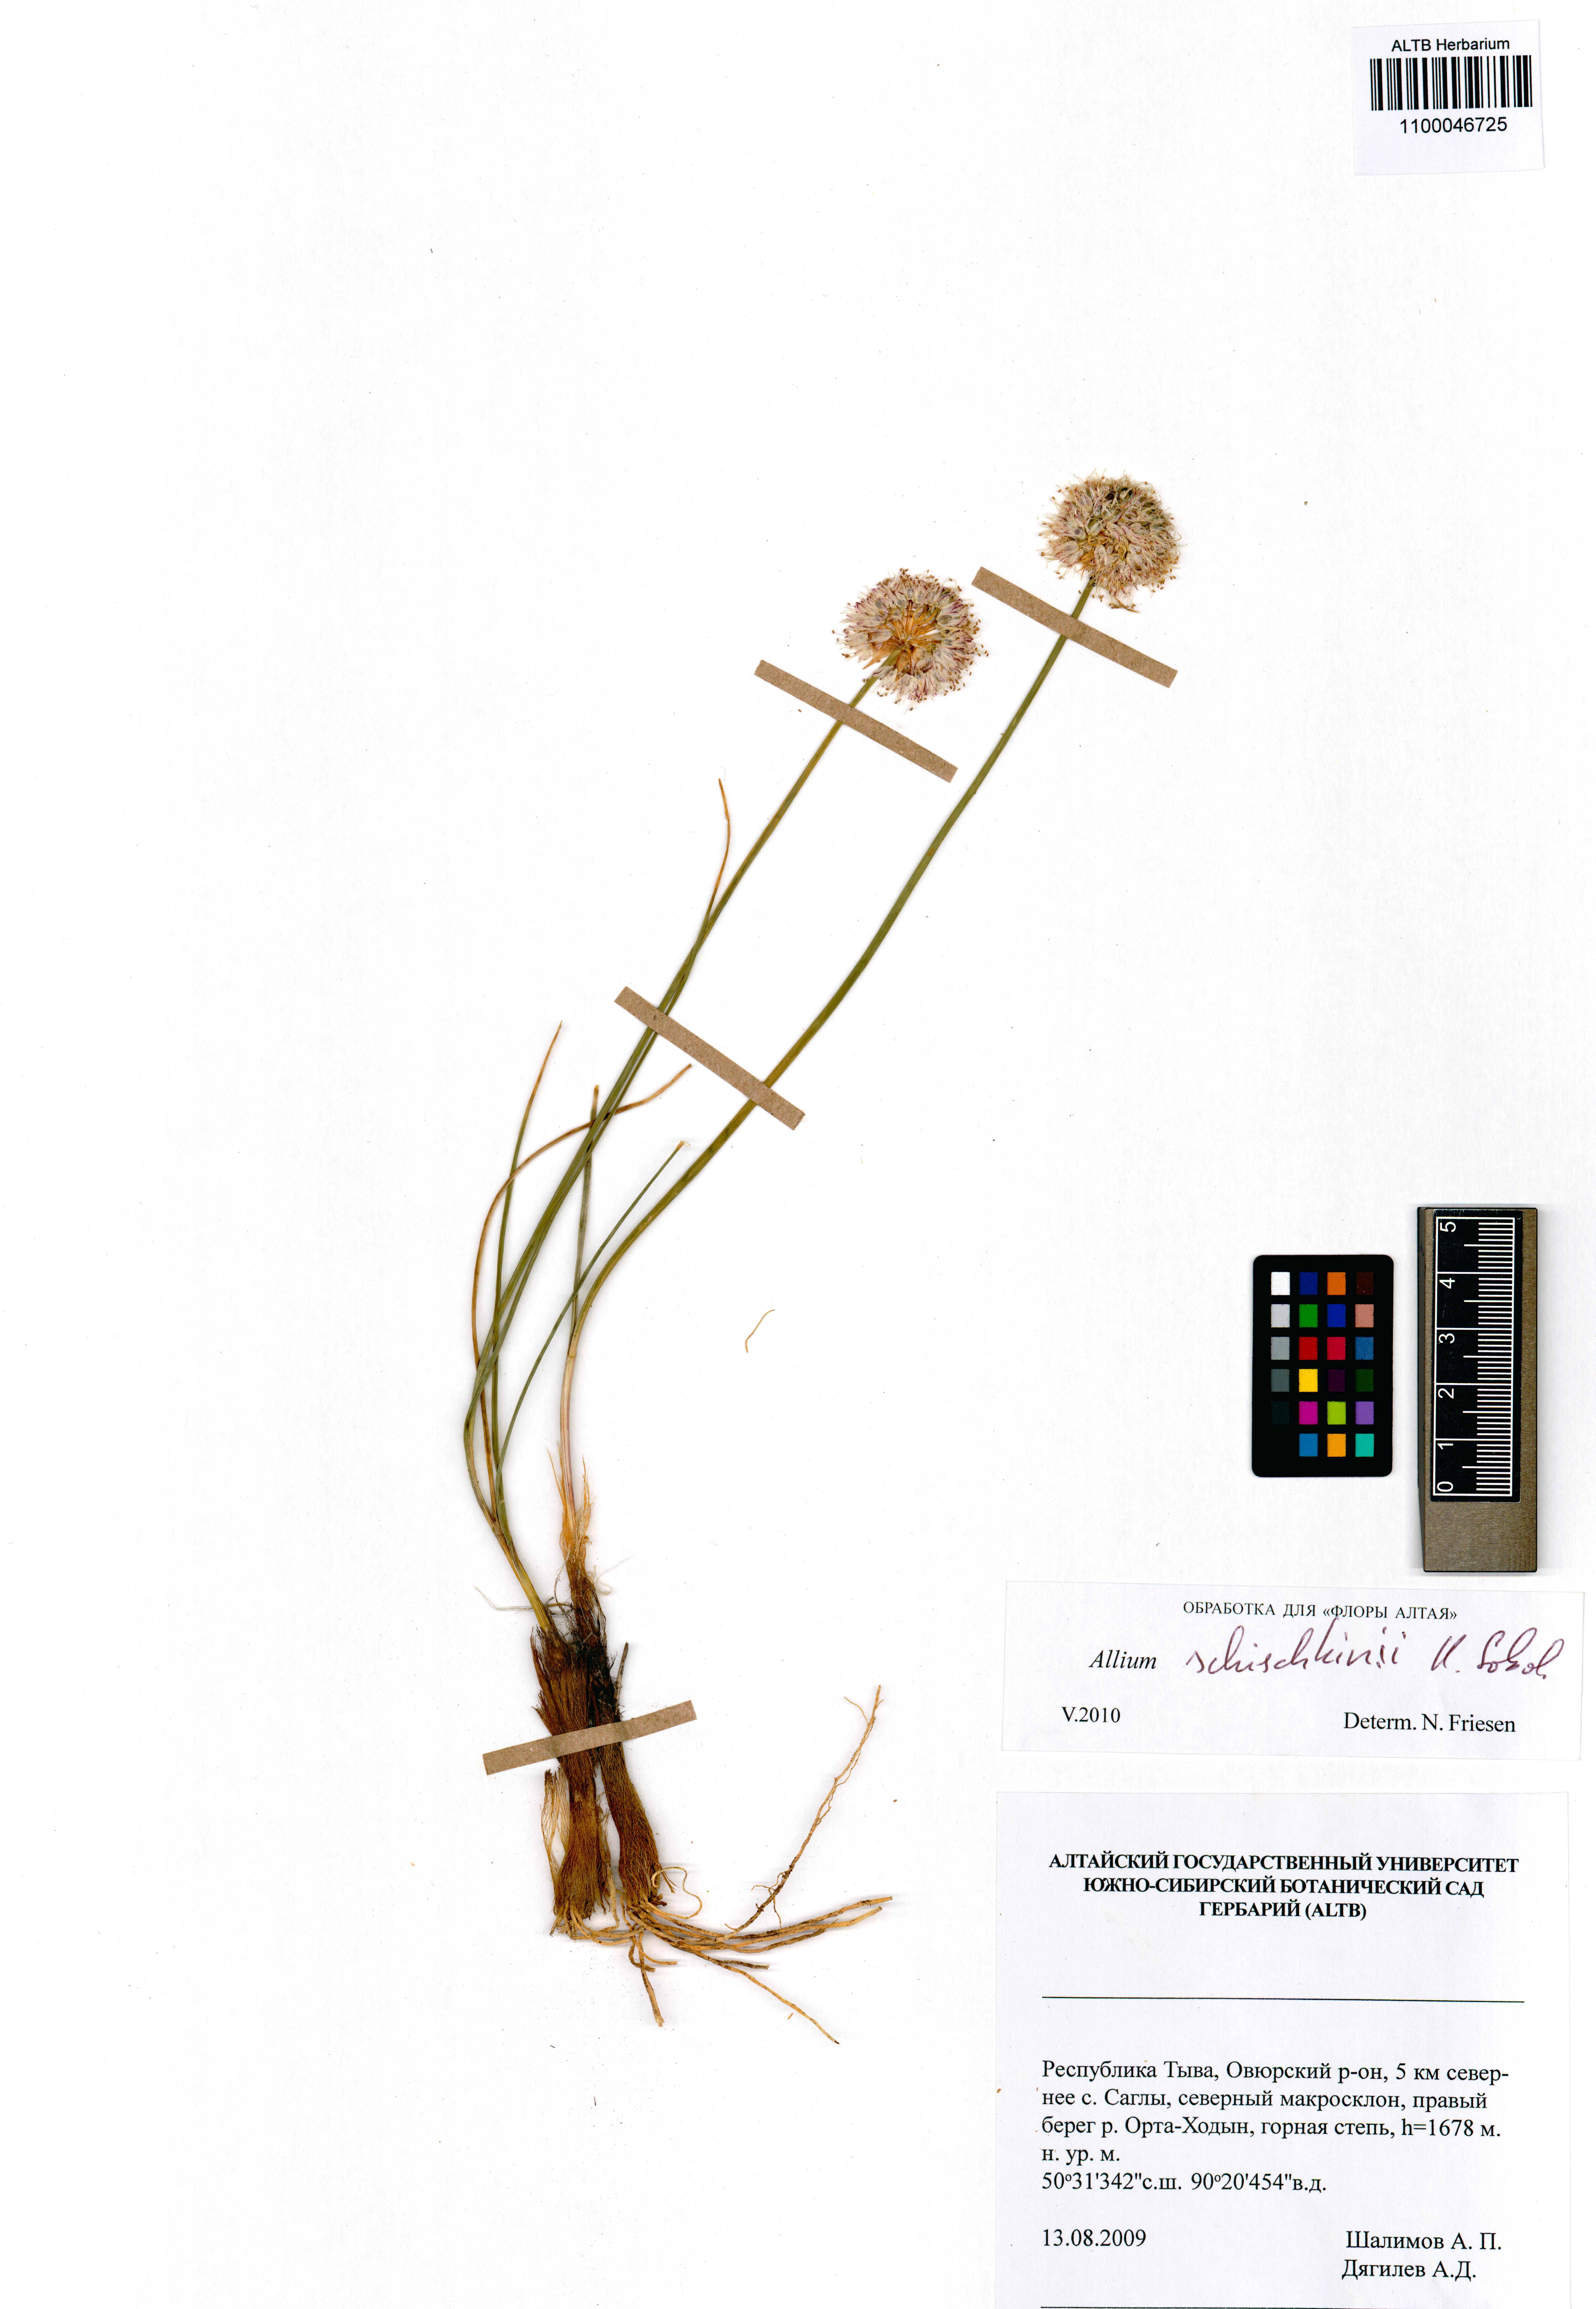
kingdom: Plantae
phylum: Tracheophyta
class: Liliopsida
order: Asparagales
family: Amaryllidaceae
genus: Allium
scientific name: Allium schischkinii
